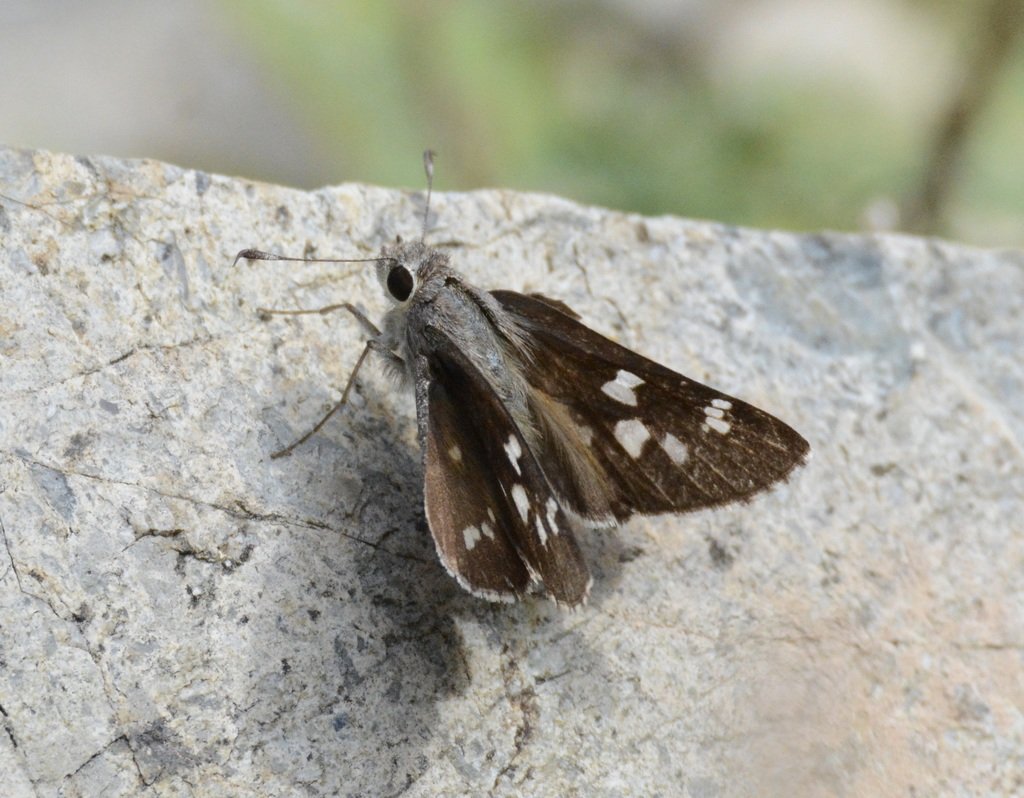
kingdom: Animalia
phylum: Arthropoda
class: Insecta
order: Lepidoptera
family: Hesperiidae
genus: Atrytonopsis
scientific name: Atrytonopsis ovinia
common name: Sheep Skipper
